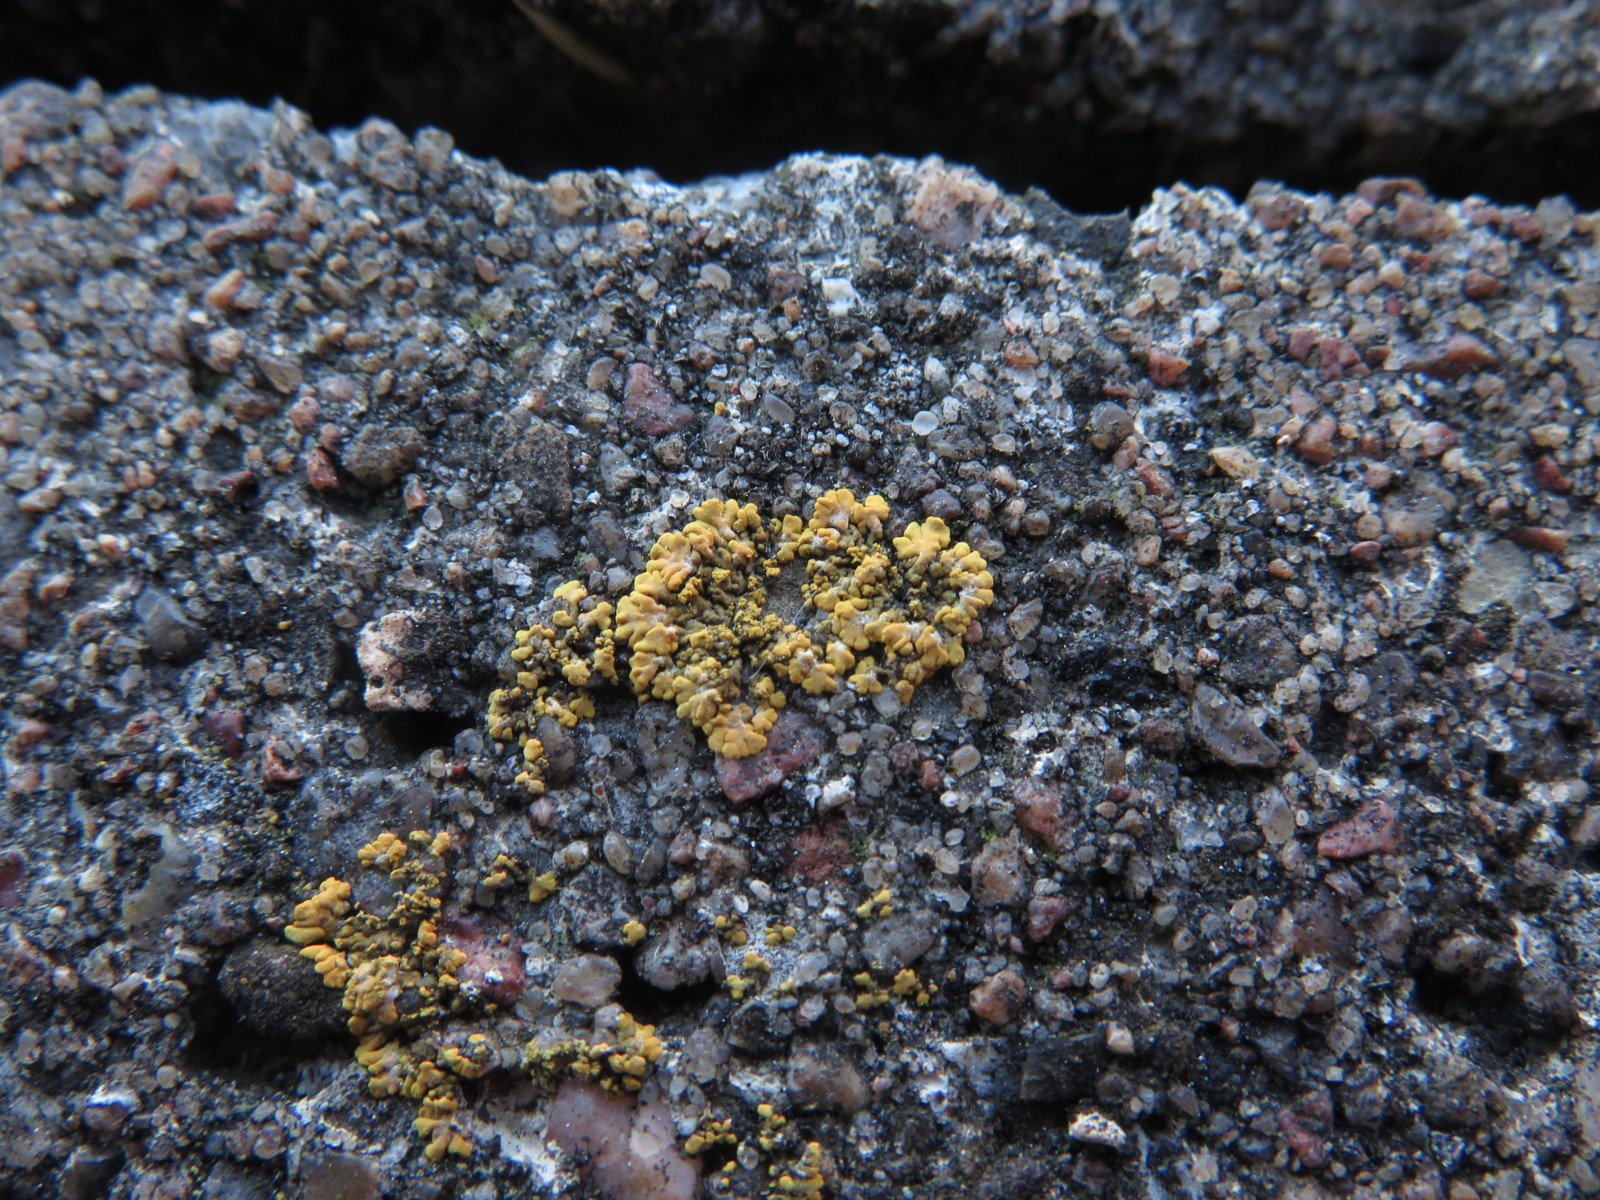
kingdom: Fungi
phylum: Ascomycota
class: Lecanoromycetes
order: Teloschistales
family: Teloschistaceae
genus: Calogaya
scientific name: Calogaya decipiens
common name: knudret orangelav
